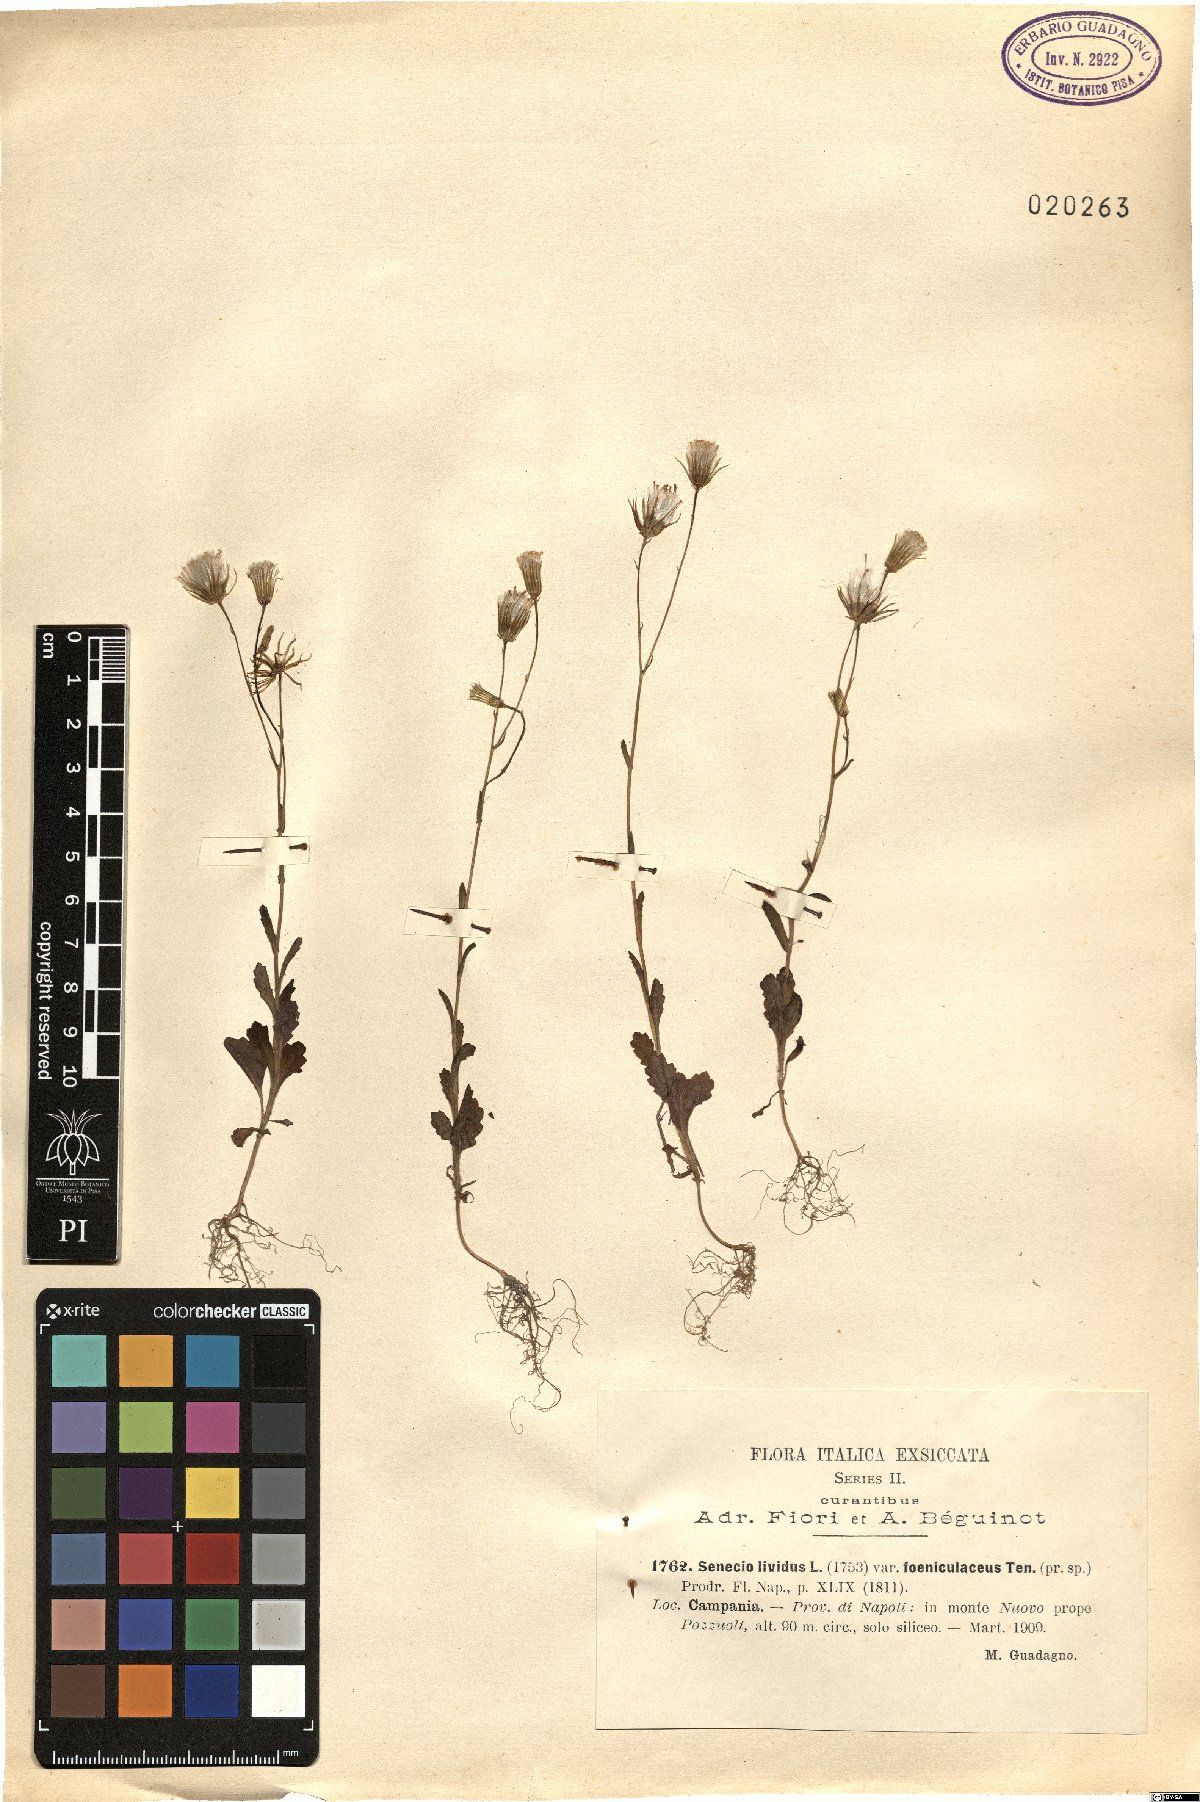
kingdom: Plantae
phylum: Tracheophyta
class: Magnoliopsida
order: Asterales
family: Asteraceae
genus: Senecio
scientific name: Senecio lividus
